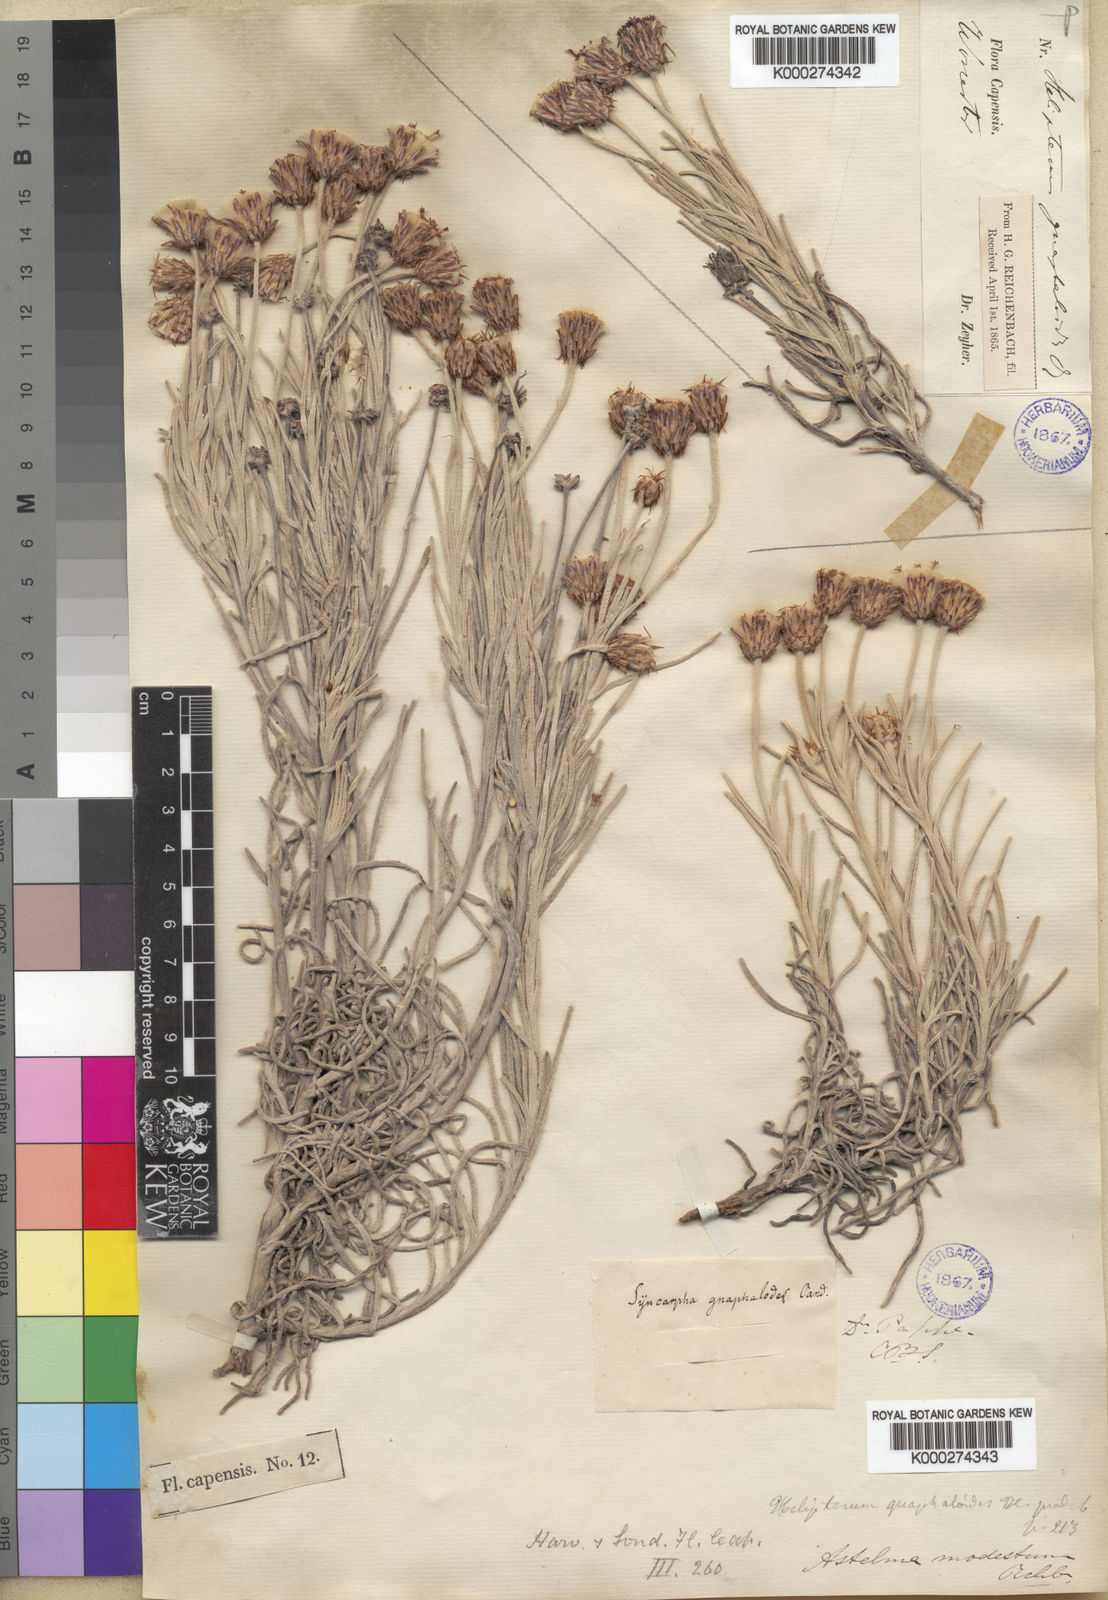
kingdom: Plantae
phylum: Tracheophyta
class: Magnoliopsida
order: Asterales
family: Asteraceae
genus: Syncarpha
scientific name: Syncarpha gnaphaloides
